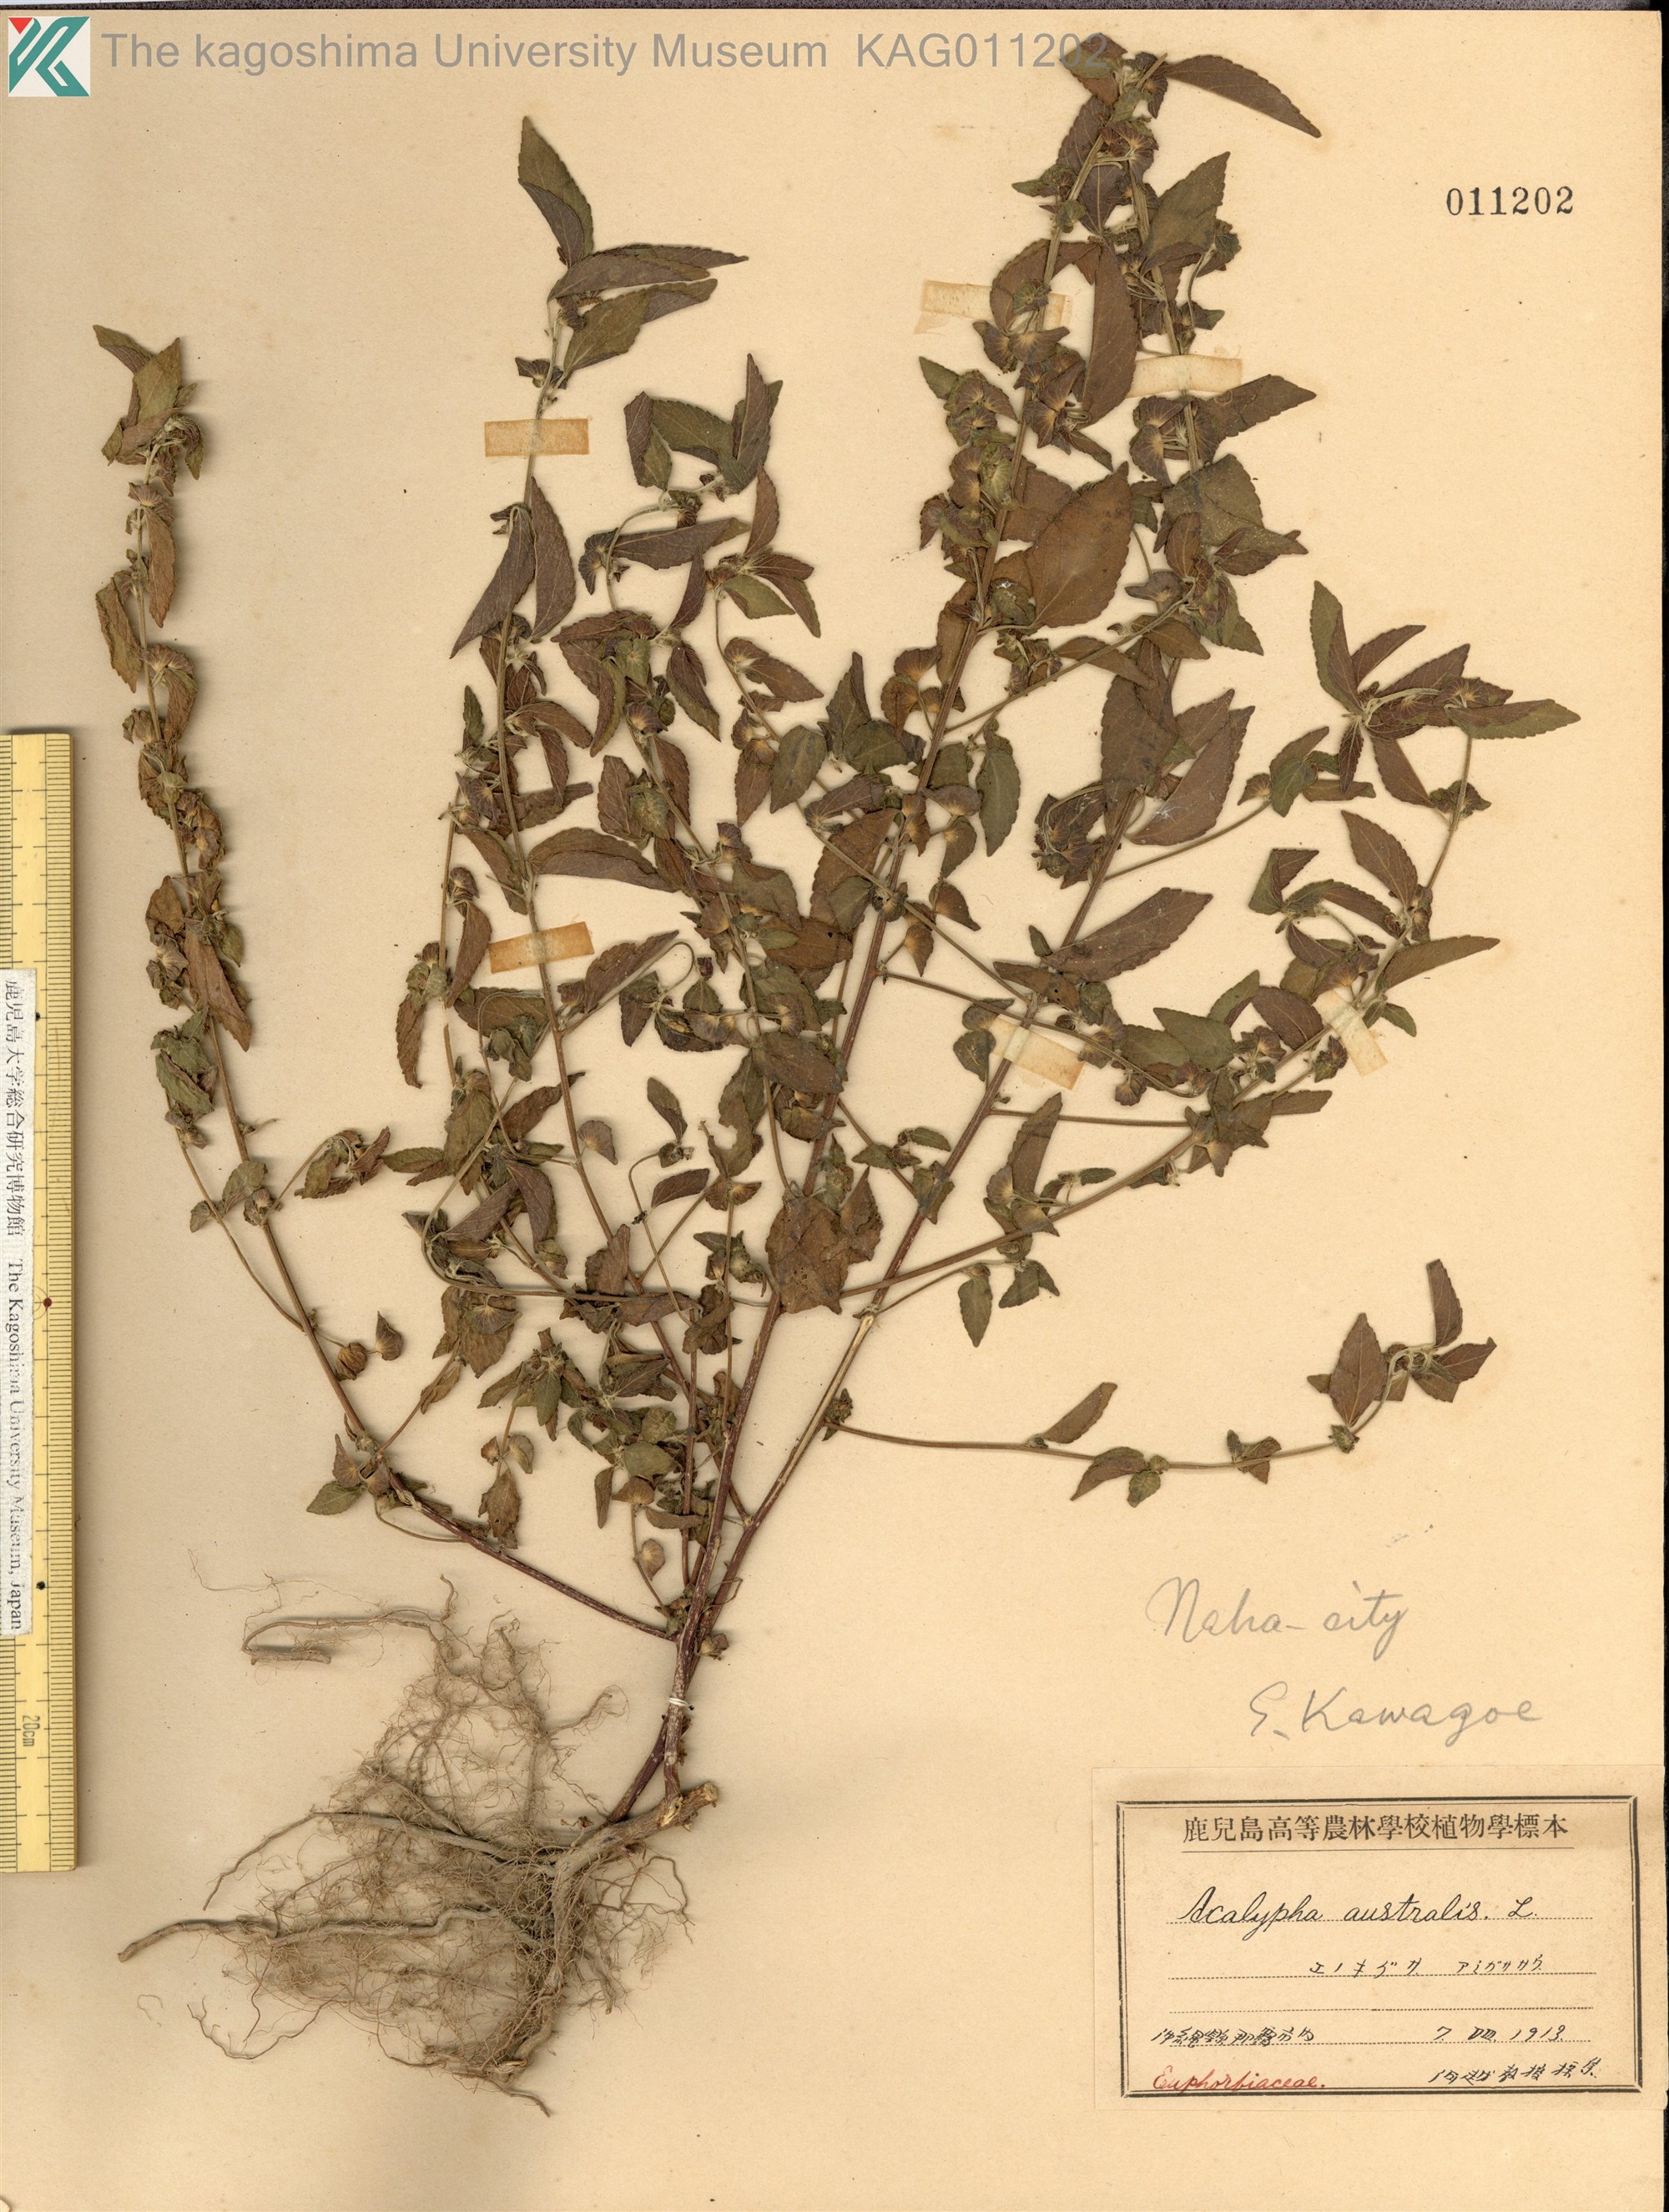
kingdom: Plantae
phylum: Tracheophyta
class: Magnoliopsida
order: Malpighiales
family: Euphorbiaceae
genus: Acalypha
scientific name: Acalypha australis
